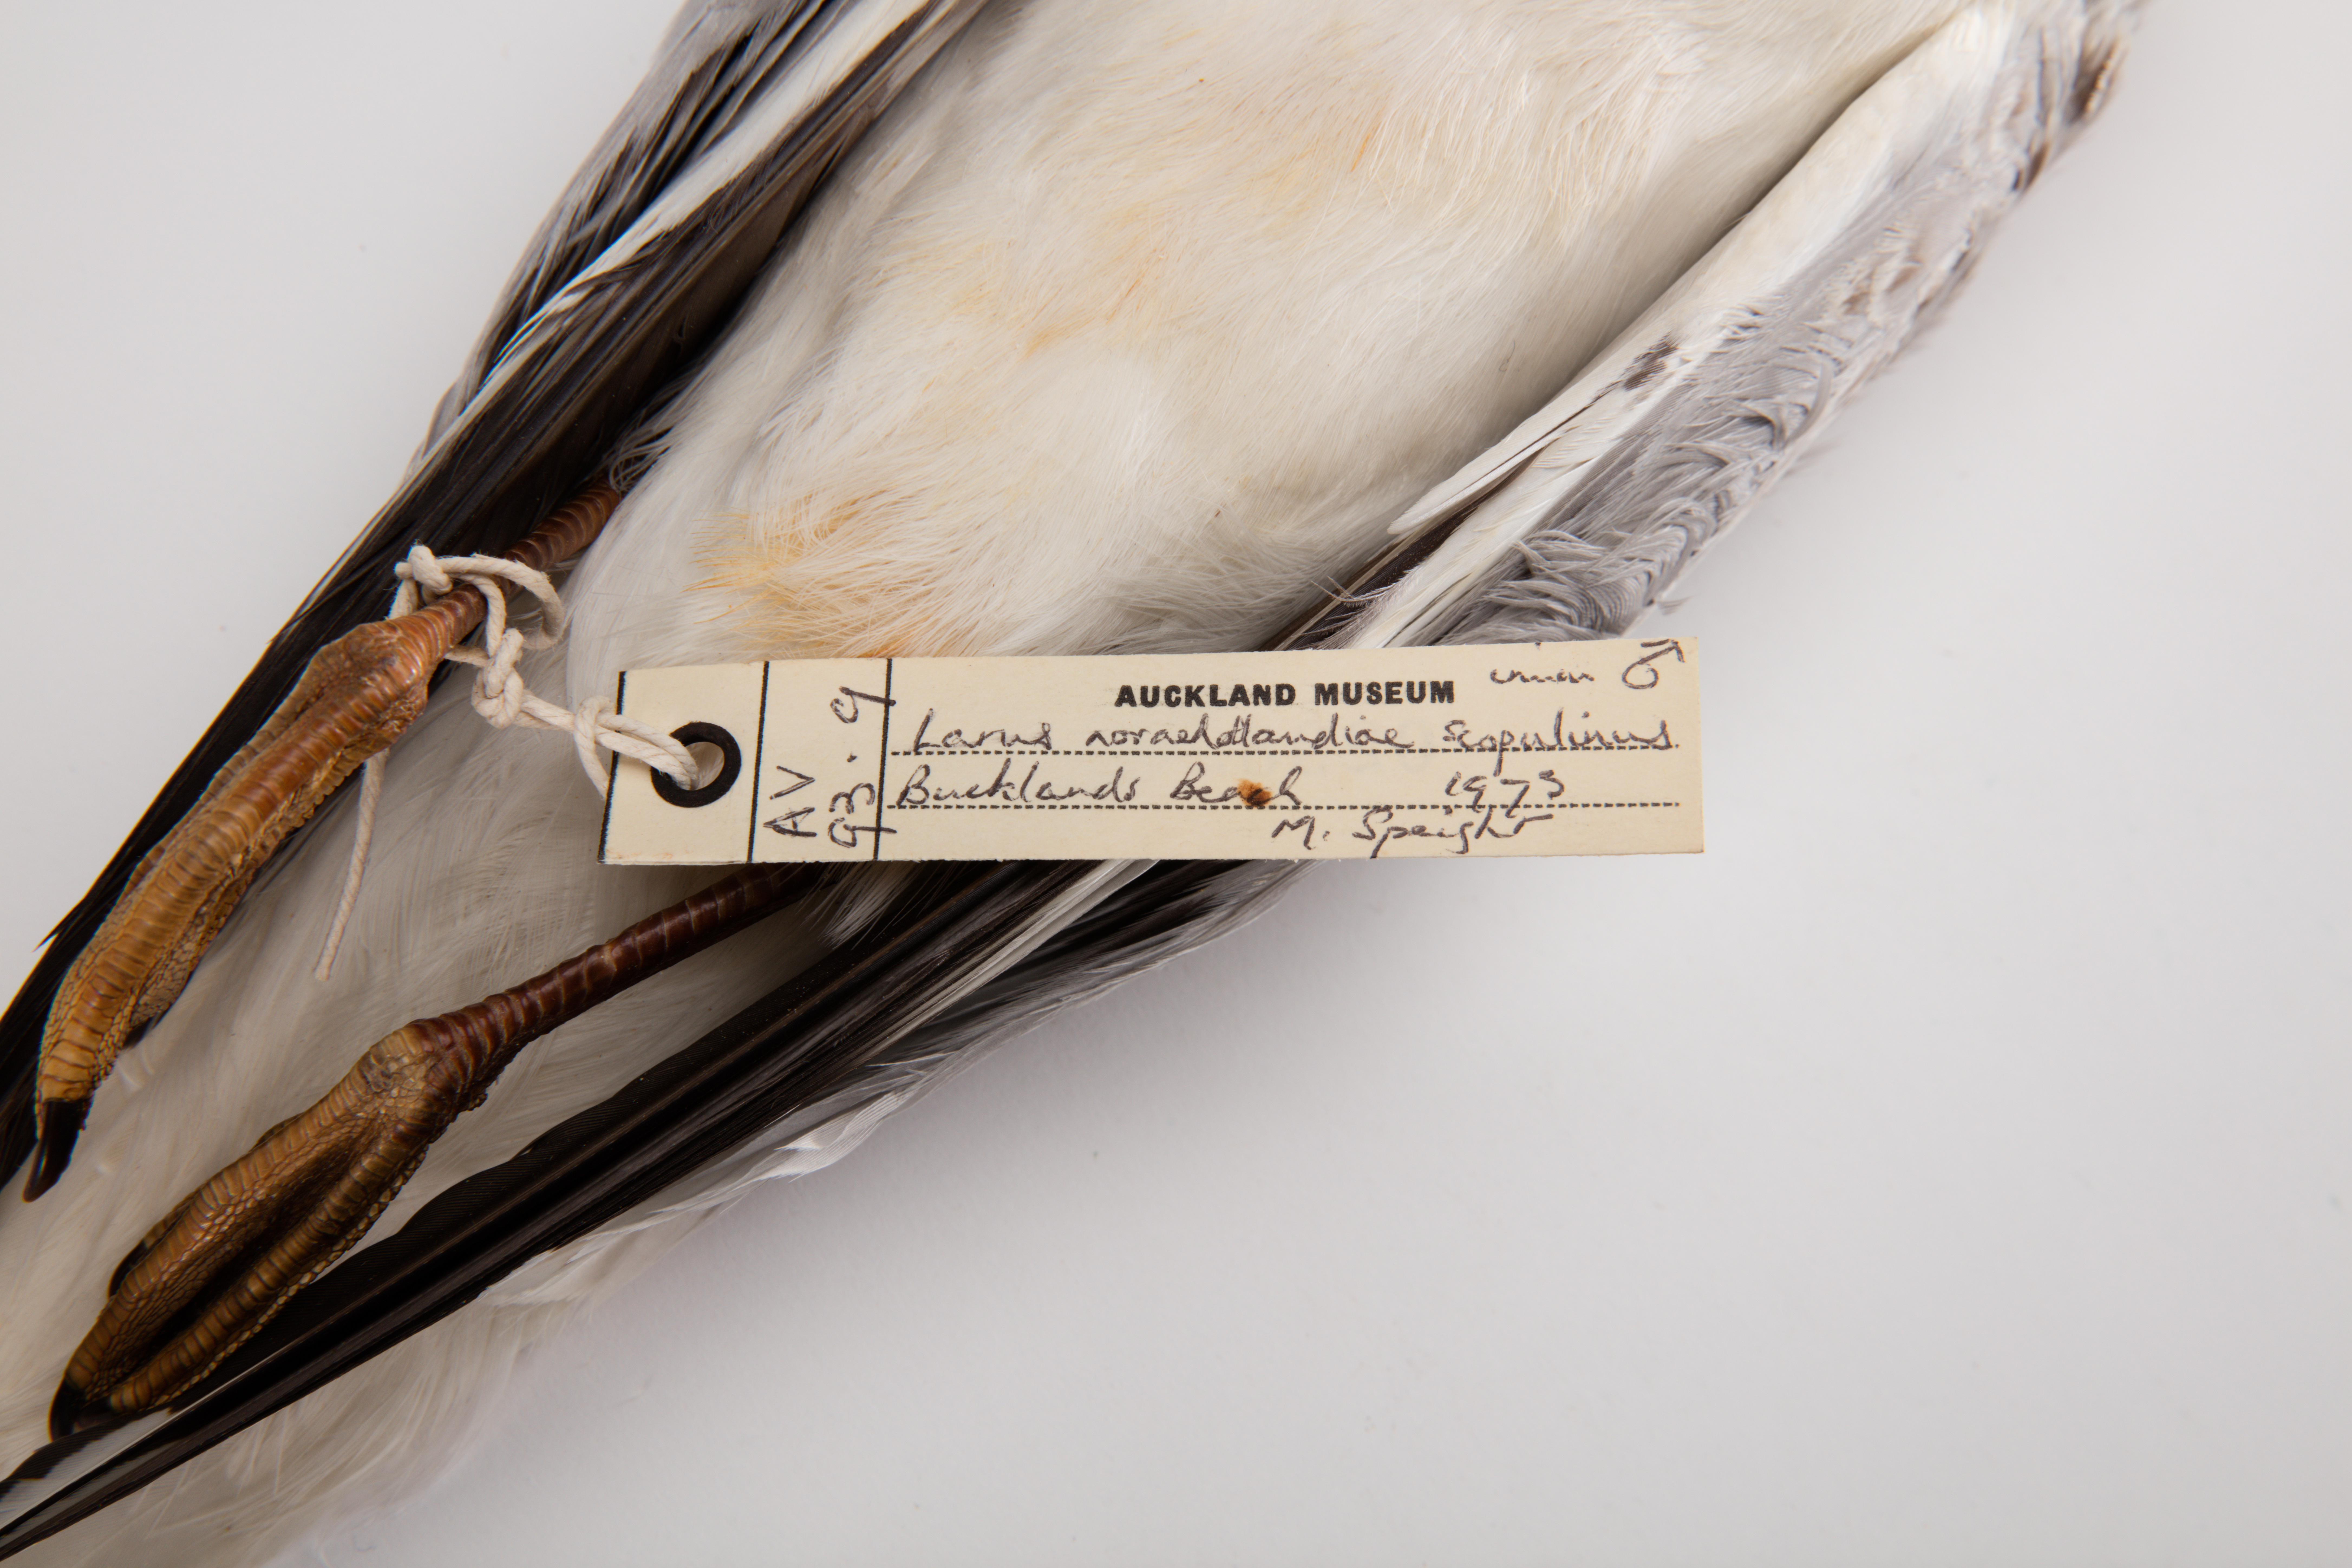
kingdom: Animalia
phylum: Chordata
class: Aves
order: Charadriiformes
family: Laridae
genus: Chroicocephalus
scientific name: Chroicocephalus novaehollandiae
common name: Silver gull
